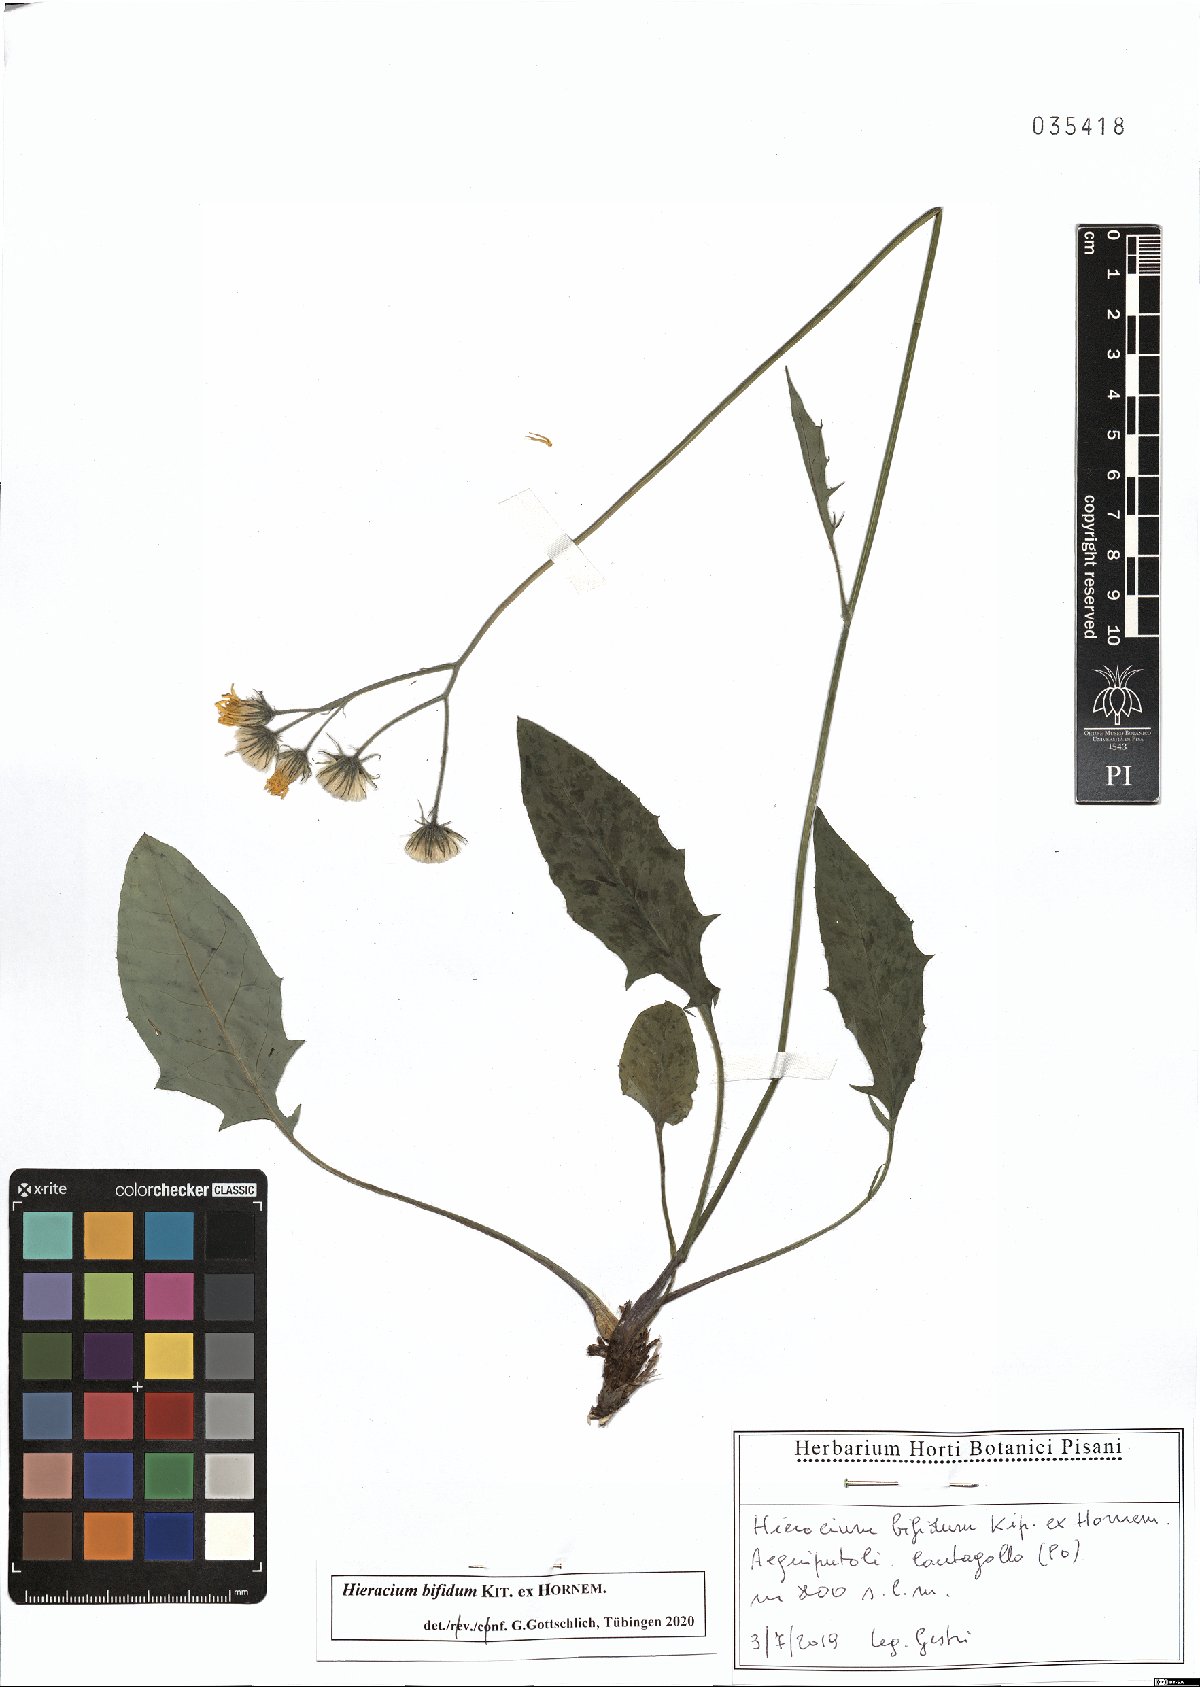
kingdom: Plantae
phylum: Tracheophyta
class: Magnoliopsida
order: Asterales
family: Asteraceae
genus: Hieracium
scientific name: Hieracium bifidum
